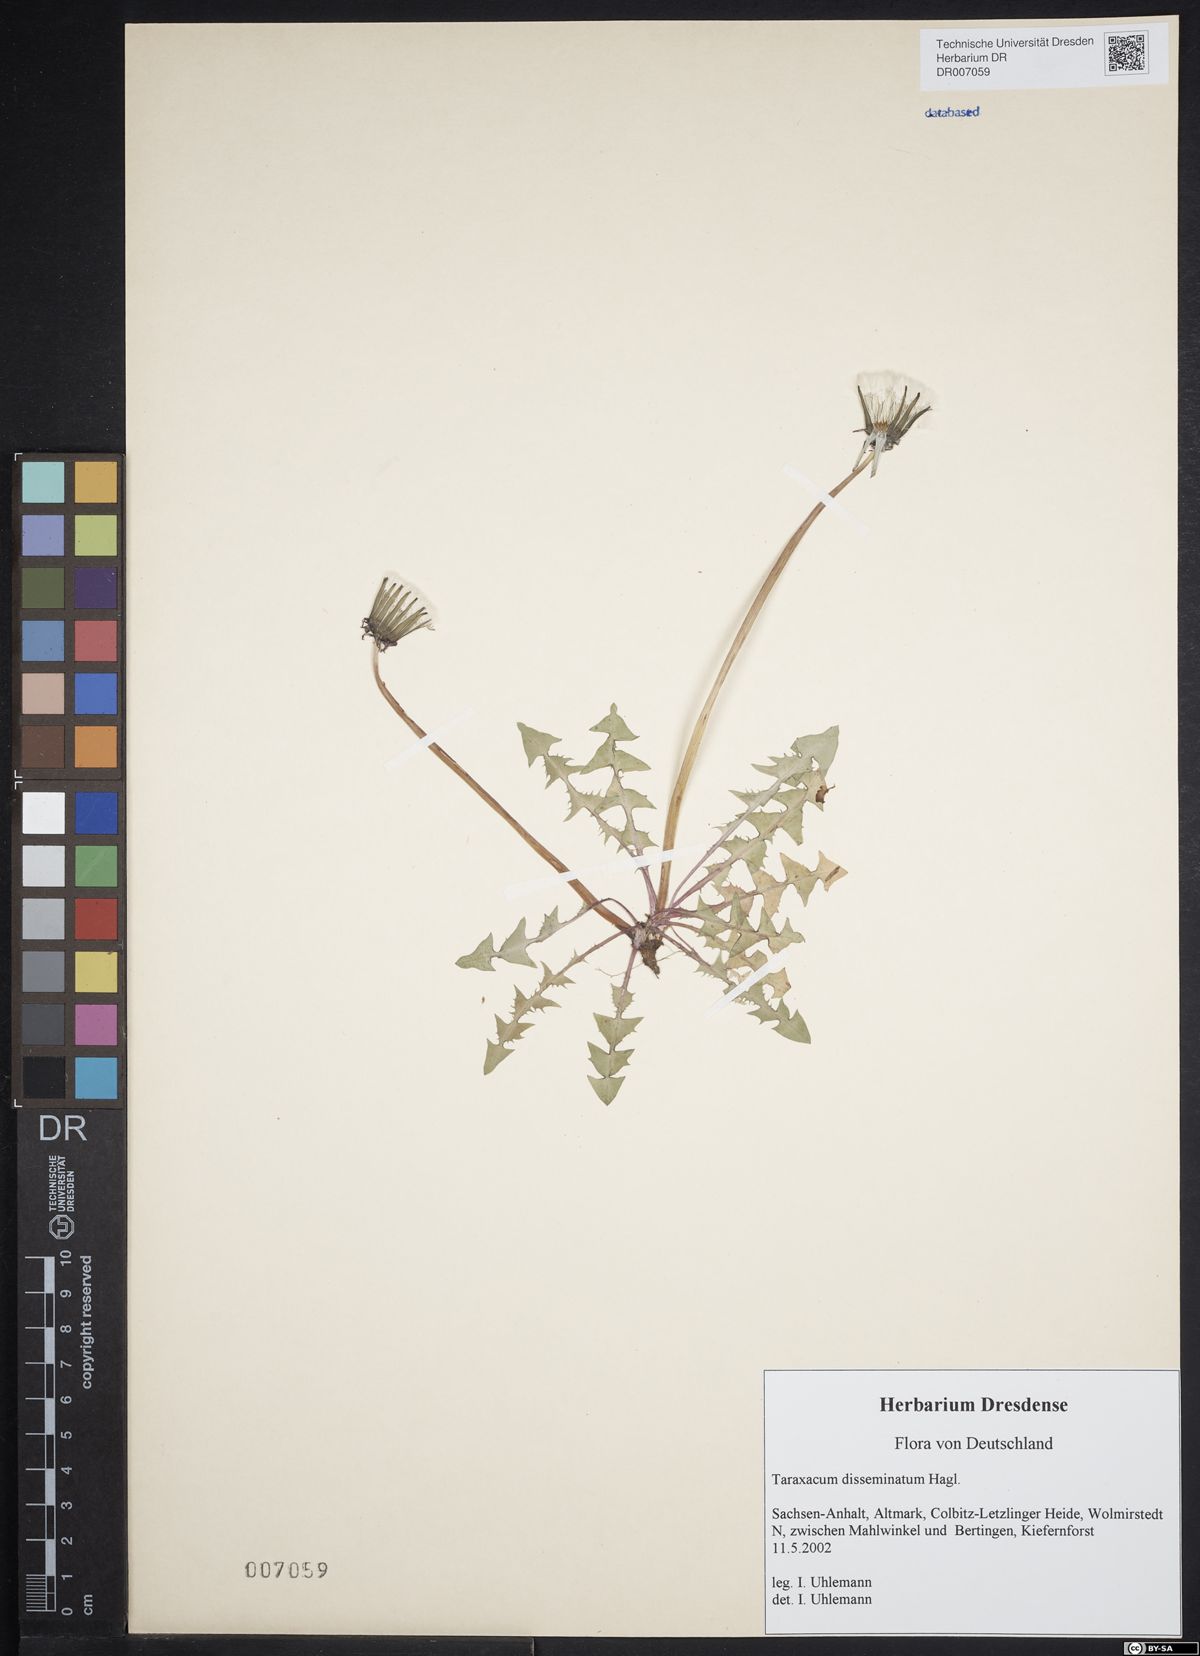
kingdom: Plantae
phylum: Tracheophyta
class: Magnoliopsida
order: Asterales
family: Asteraceae
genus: Taraxacum
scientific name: Taraxacum disseminatum
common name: Golden-fruited dandelion
